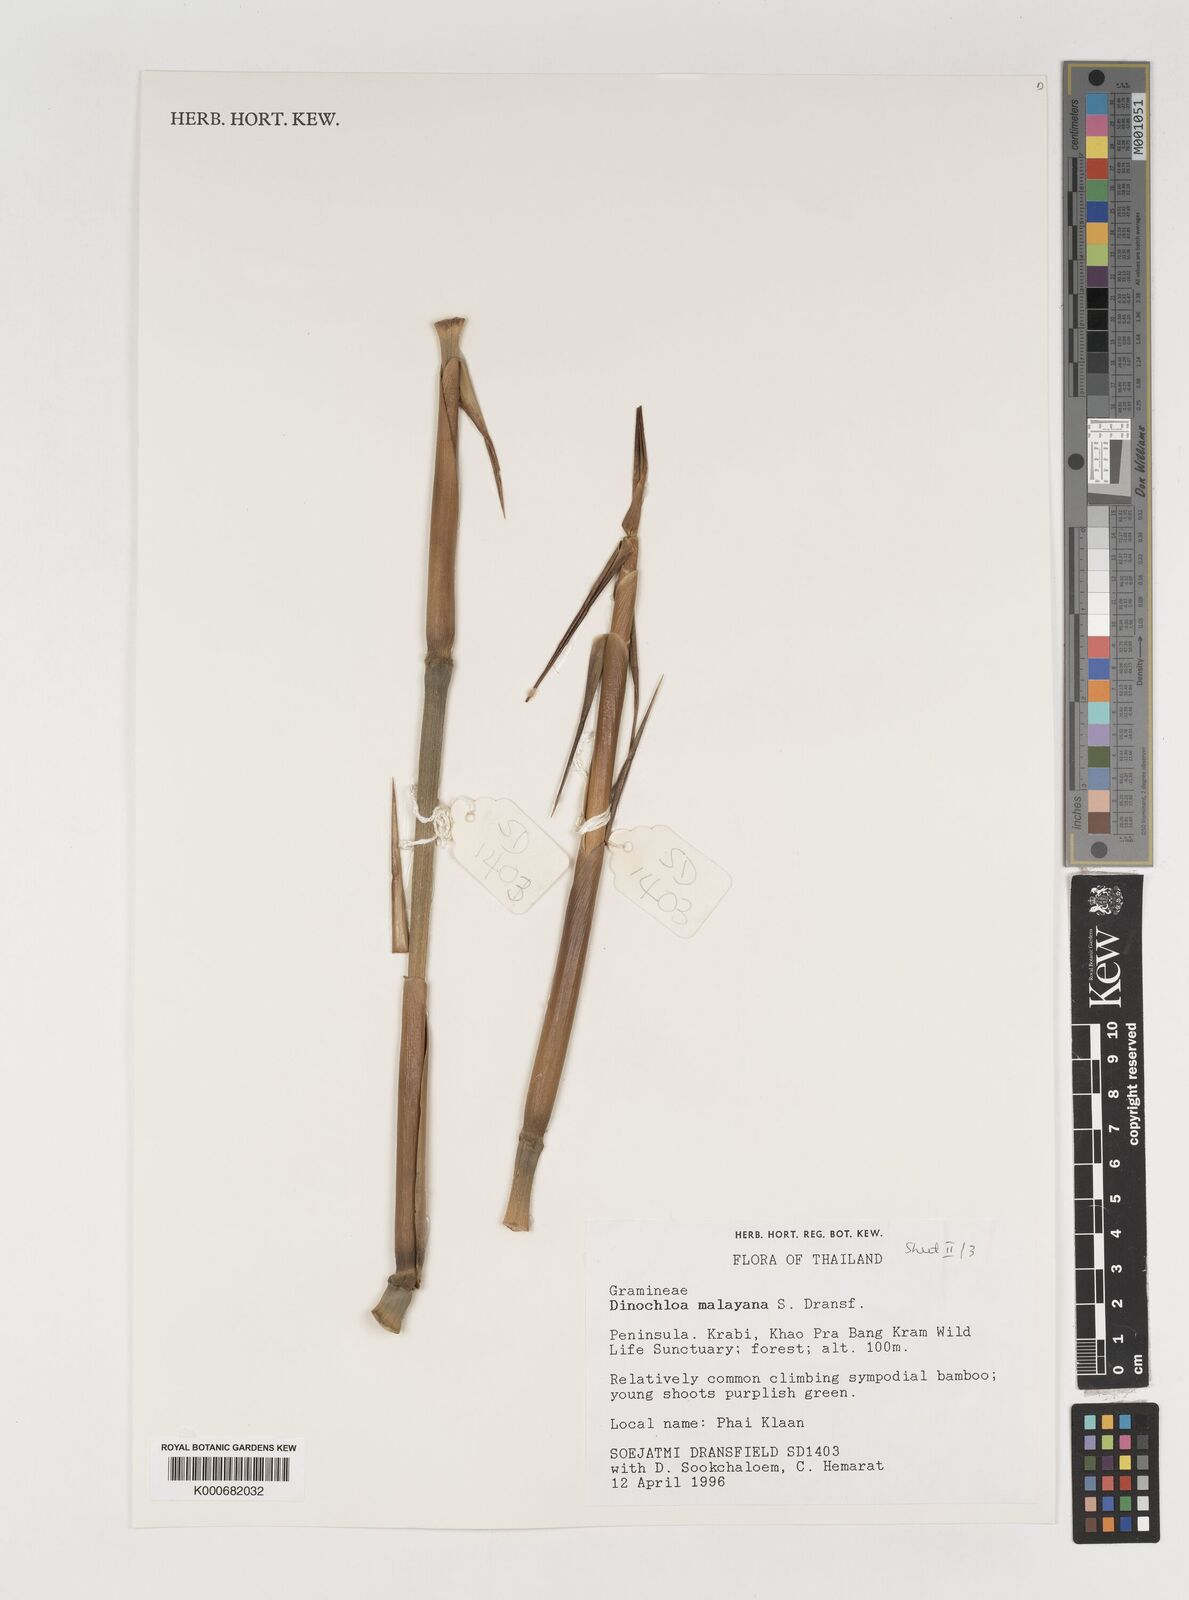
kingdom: Plantae
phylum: Tracheophyta
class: Liliopsida
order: Poales
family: Poaceae
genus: Dinochloa
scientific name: Dinochloa malayana
